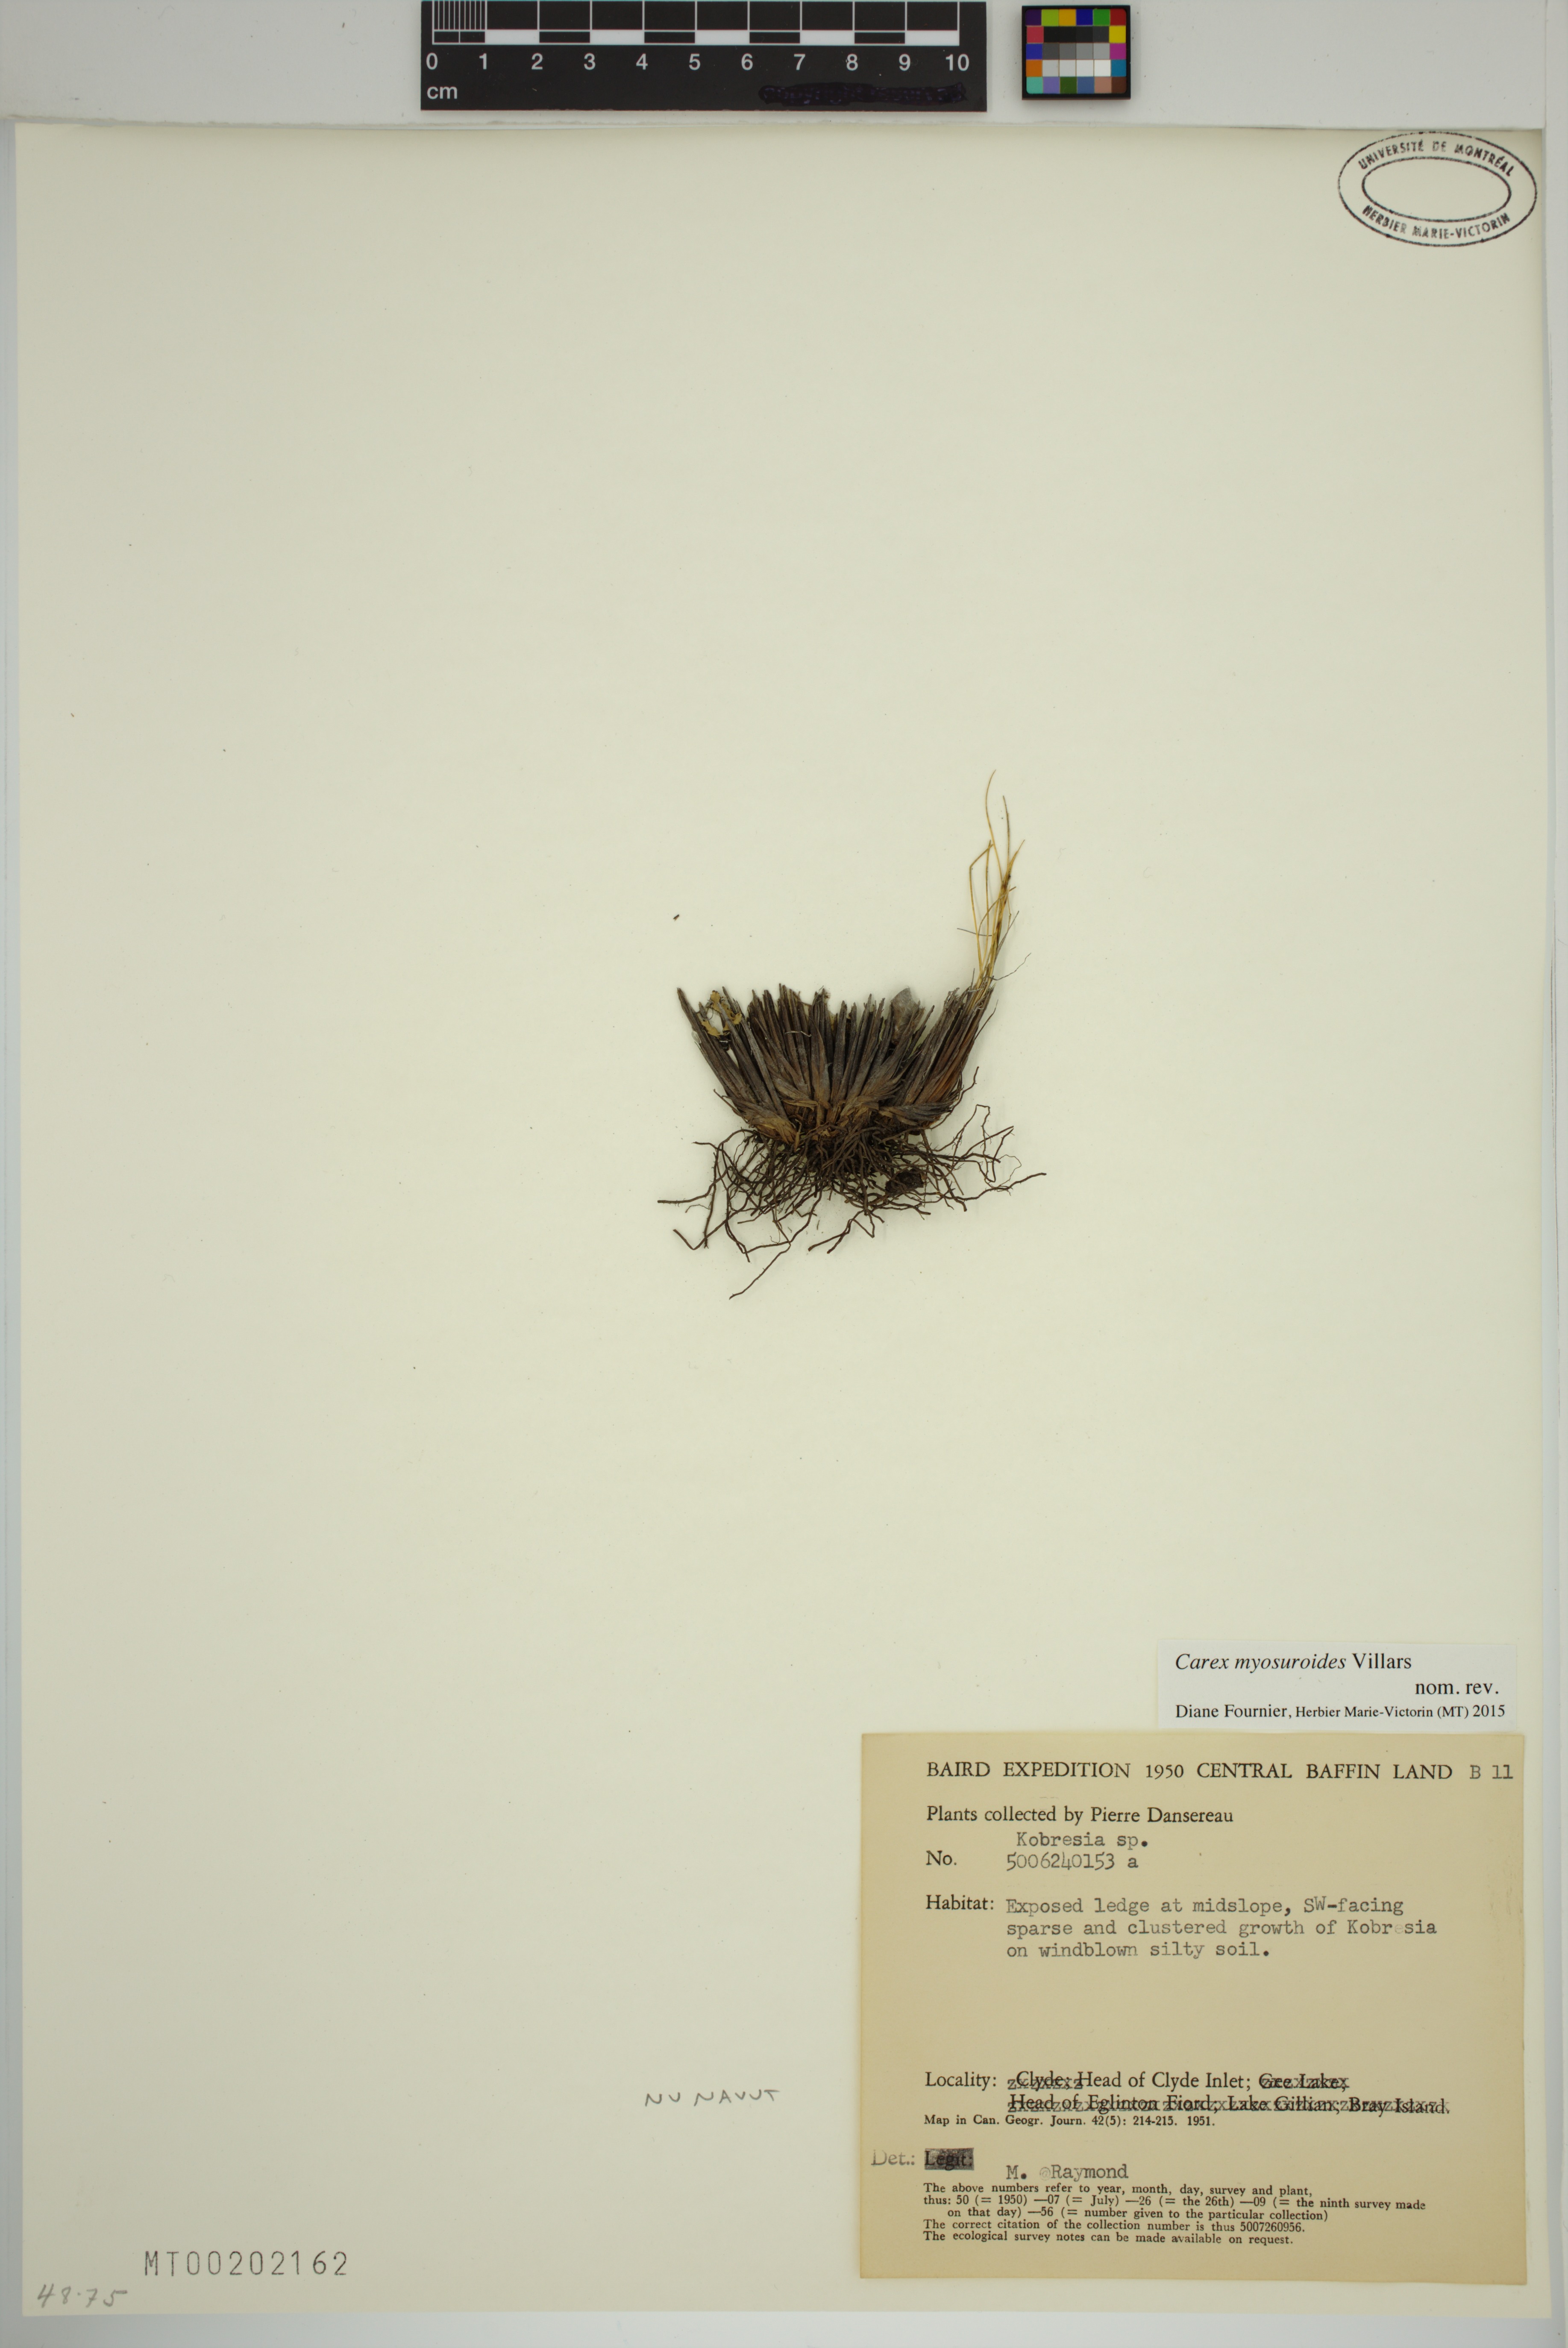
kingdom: Plantae
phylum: Tracheophyta
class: Liliopsida
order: Poales
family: Cyperaceae
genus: Carex
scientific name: Carex myosuroides
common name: Bellard's bog sedge
